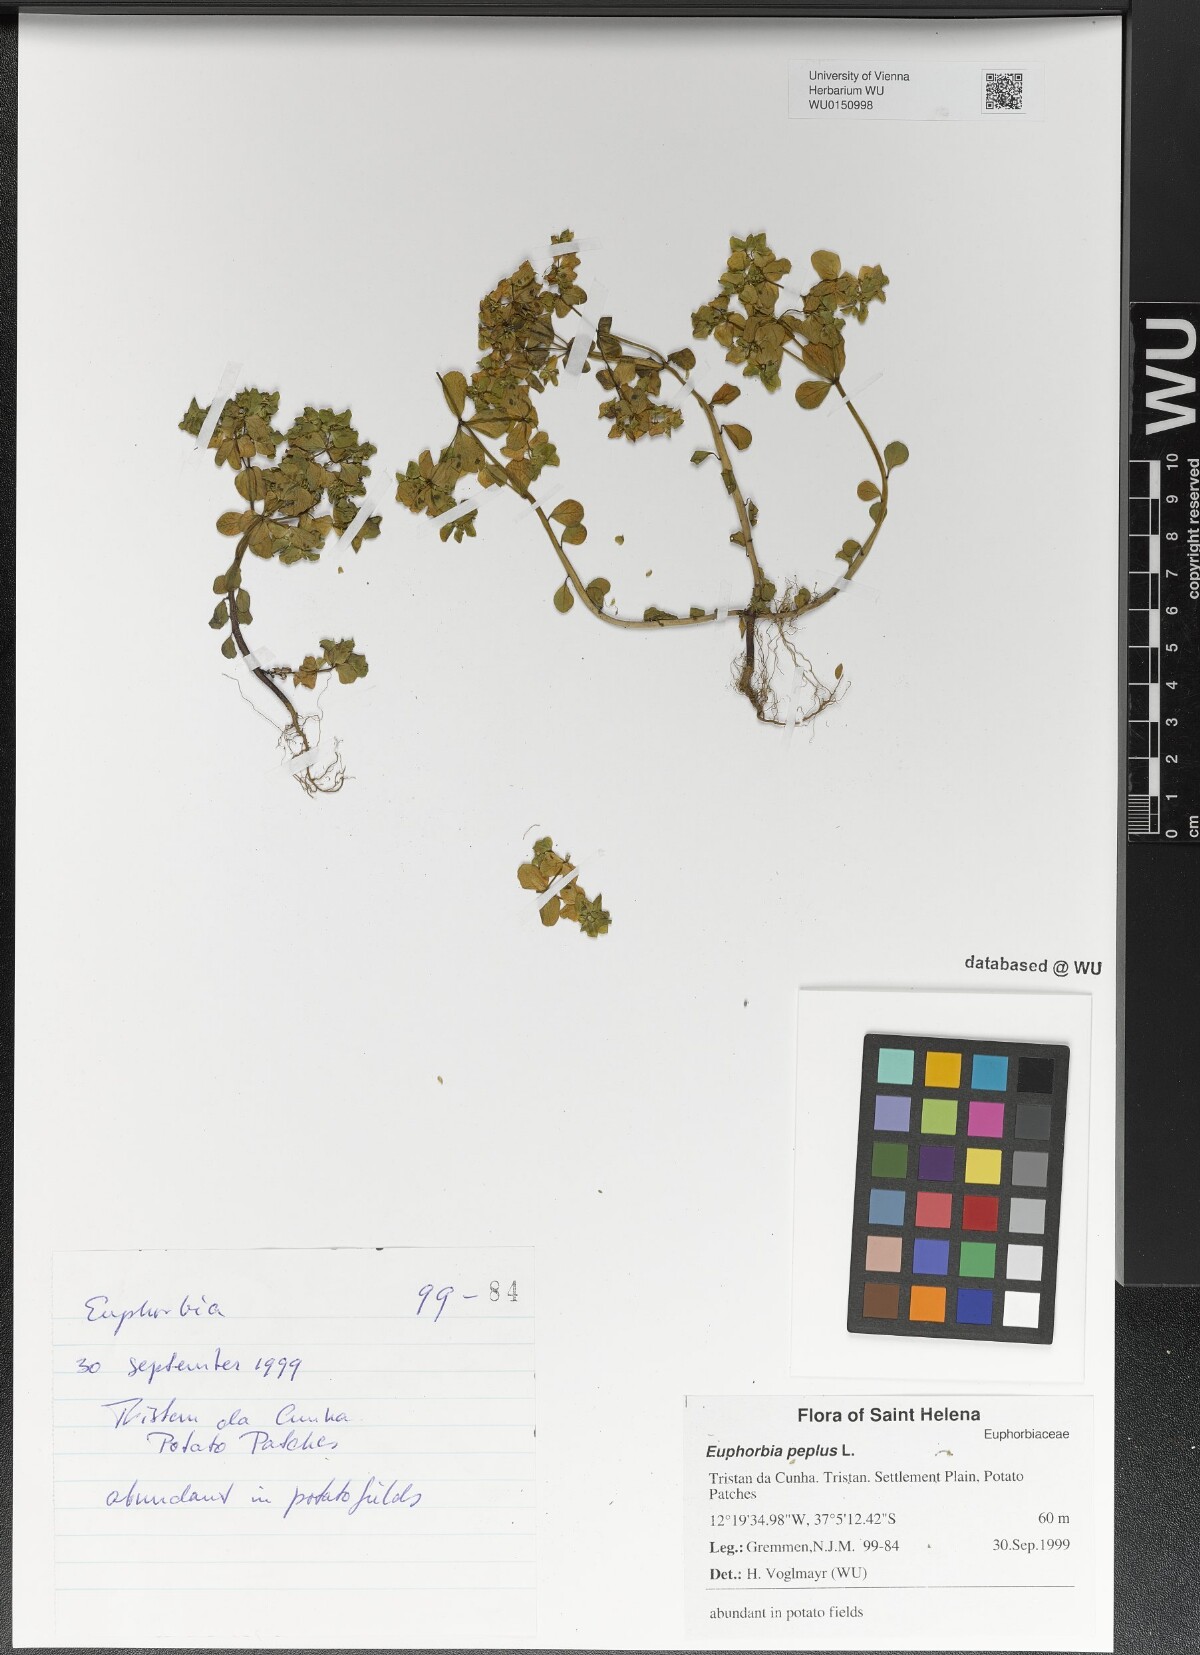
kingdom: Plantae
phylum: Tracheophyta
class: Magnoliopsida
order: Malpighiales
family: Euphorbiaceae
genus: Euphorbia
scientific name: Euphorbia peplus
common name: Petty spurge
